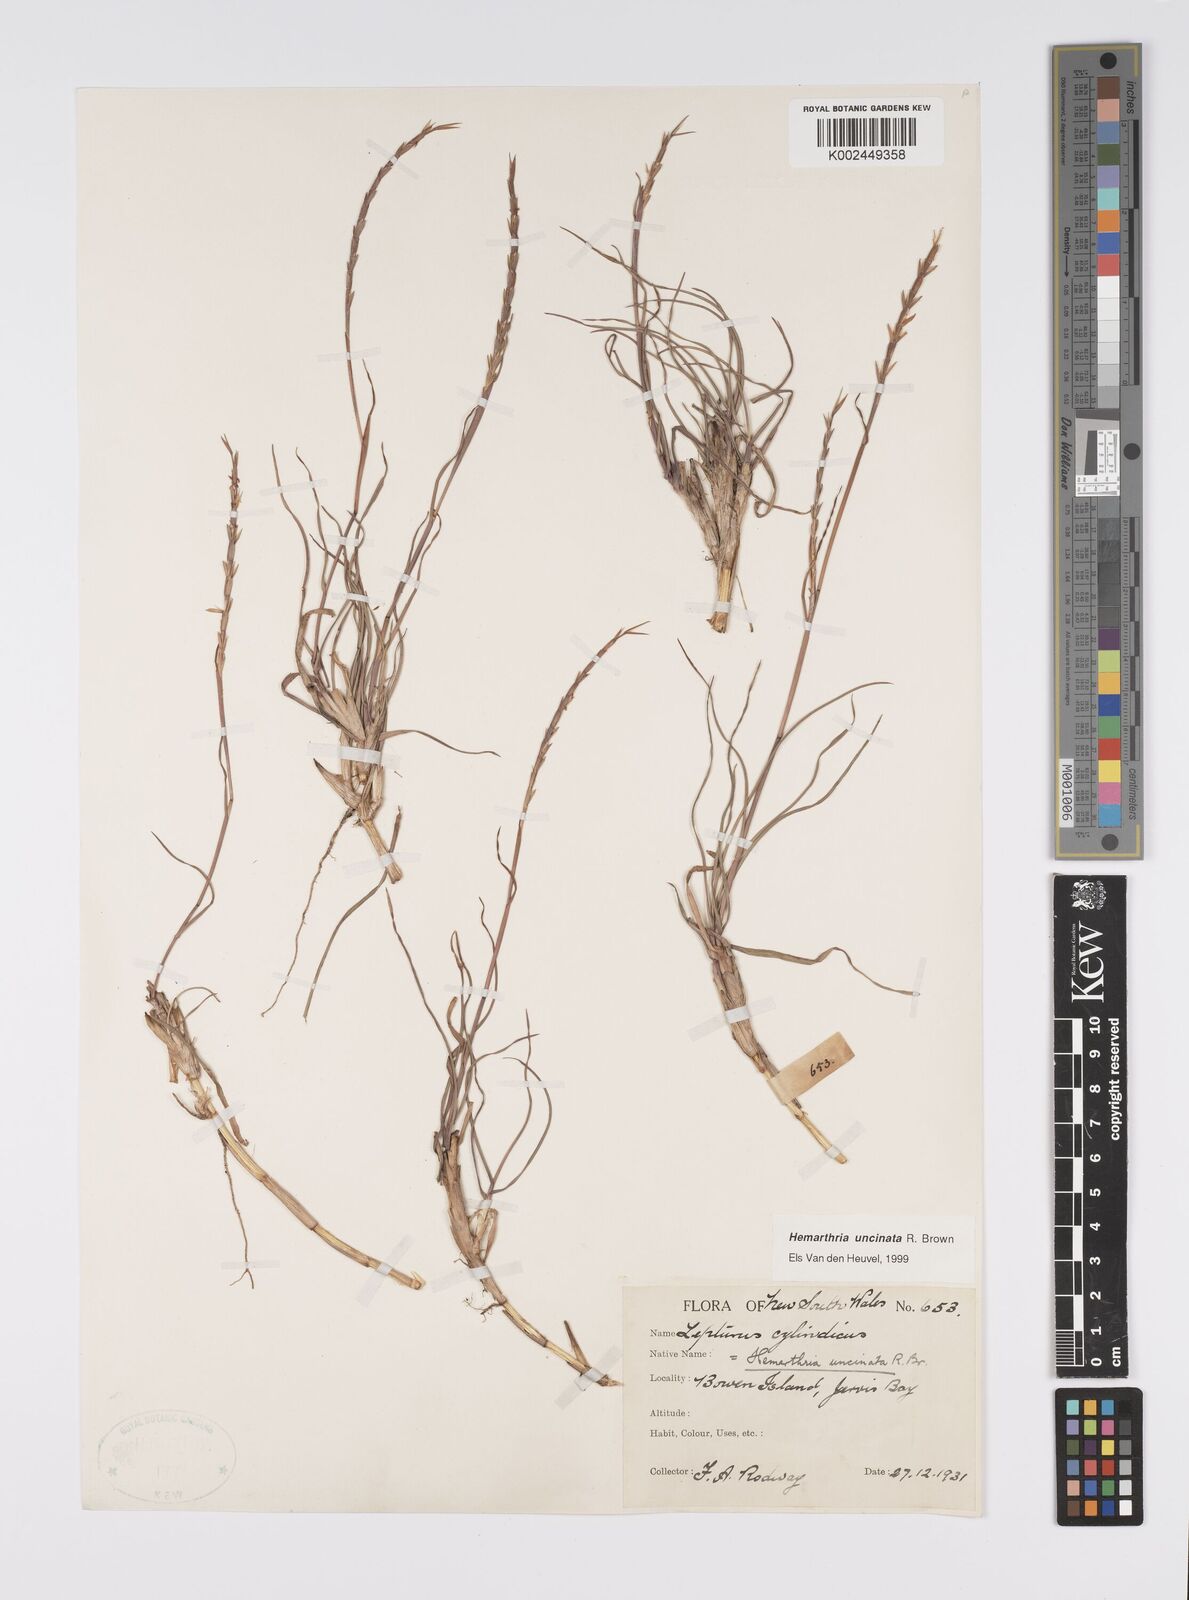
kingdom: Plantae
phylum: Tracheophyta
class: Liliopsida
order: Poales
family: Poaceae
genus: Hemarthria
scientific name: Hemarthria uncinata
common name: Matgrass
